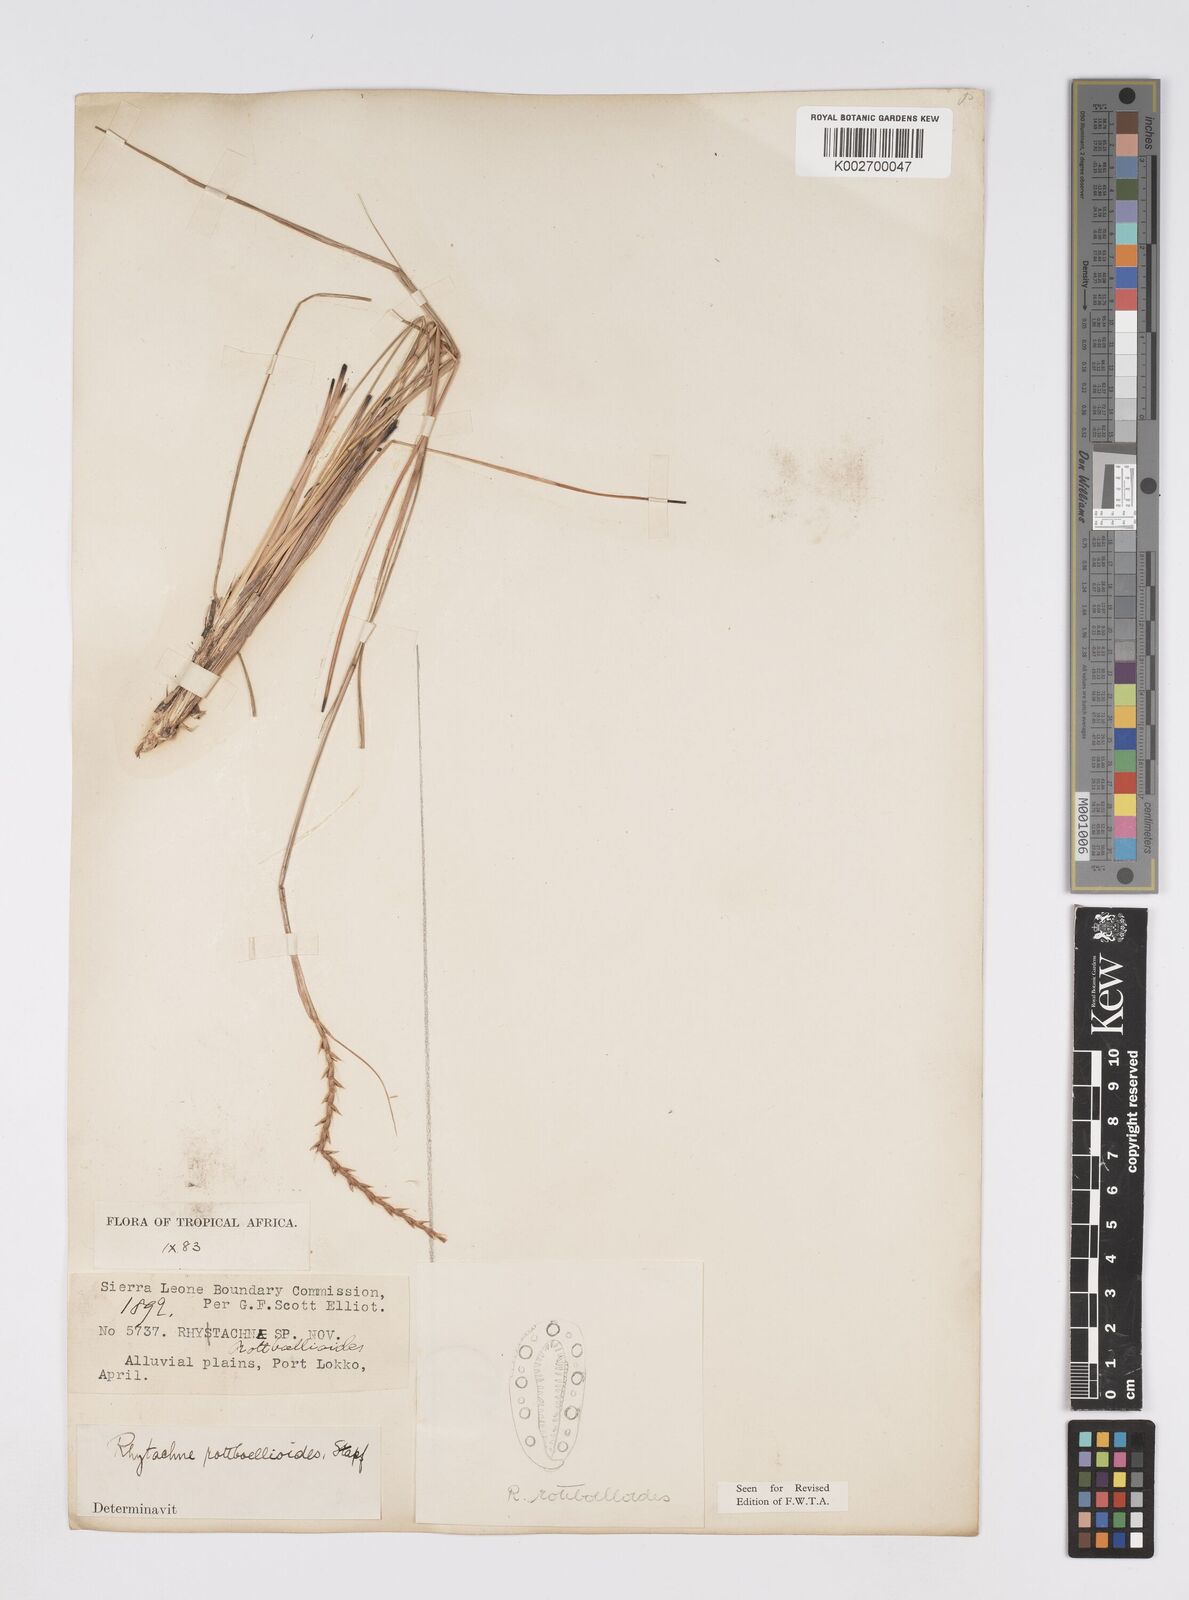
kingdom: Plantae
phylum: Tracheophyta
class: Liliopsida
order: Poales
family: Poaceae
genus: Rhytachne
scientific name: Rhytachne rottboellioides
